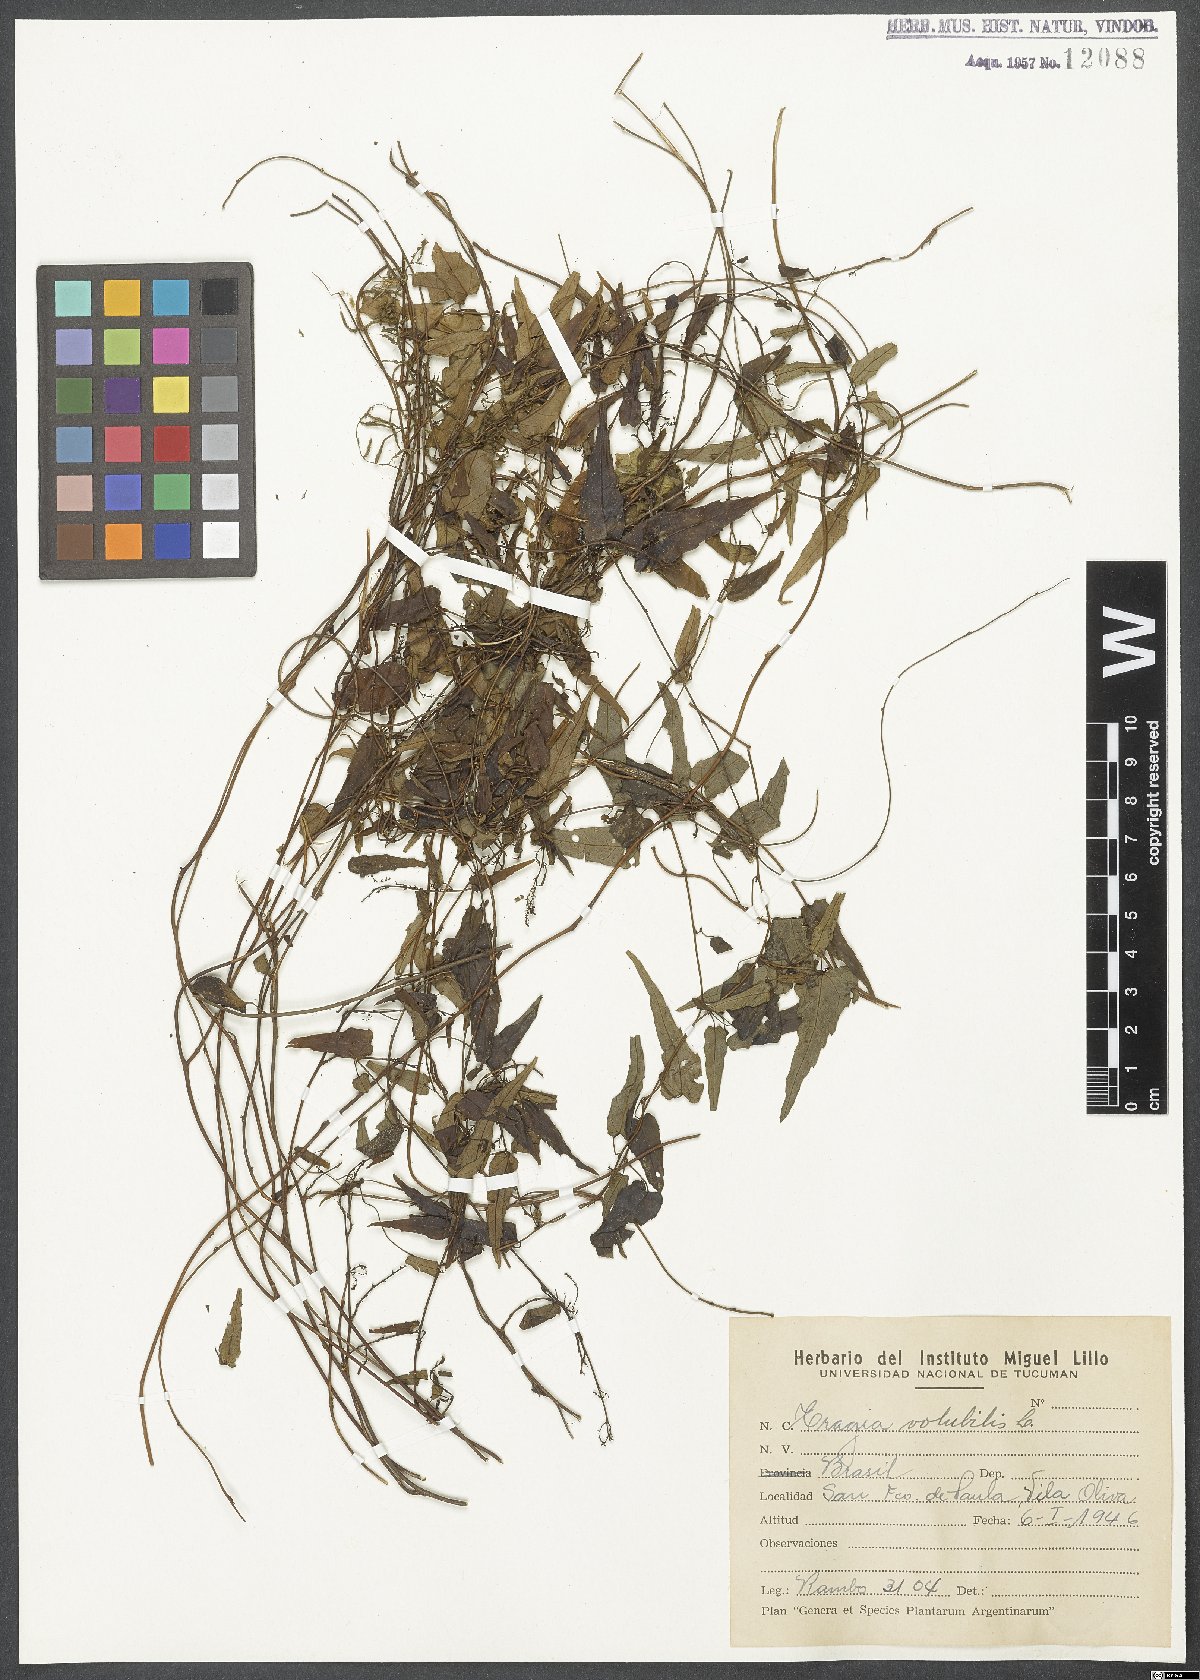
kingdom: Plantae
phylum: Tracheophyta
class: Magnoliopsida
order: Malpighiales
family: Euphorbiaceae
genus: Tragia
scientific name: Tragia volubilis
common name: Twining cow-itch
